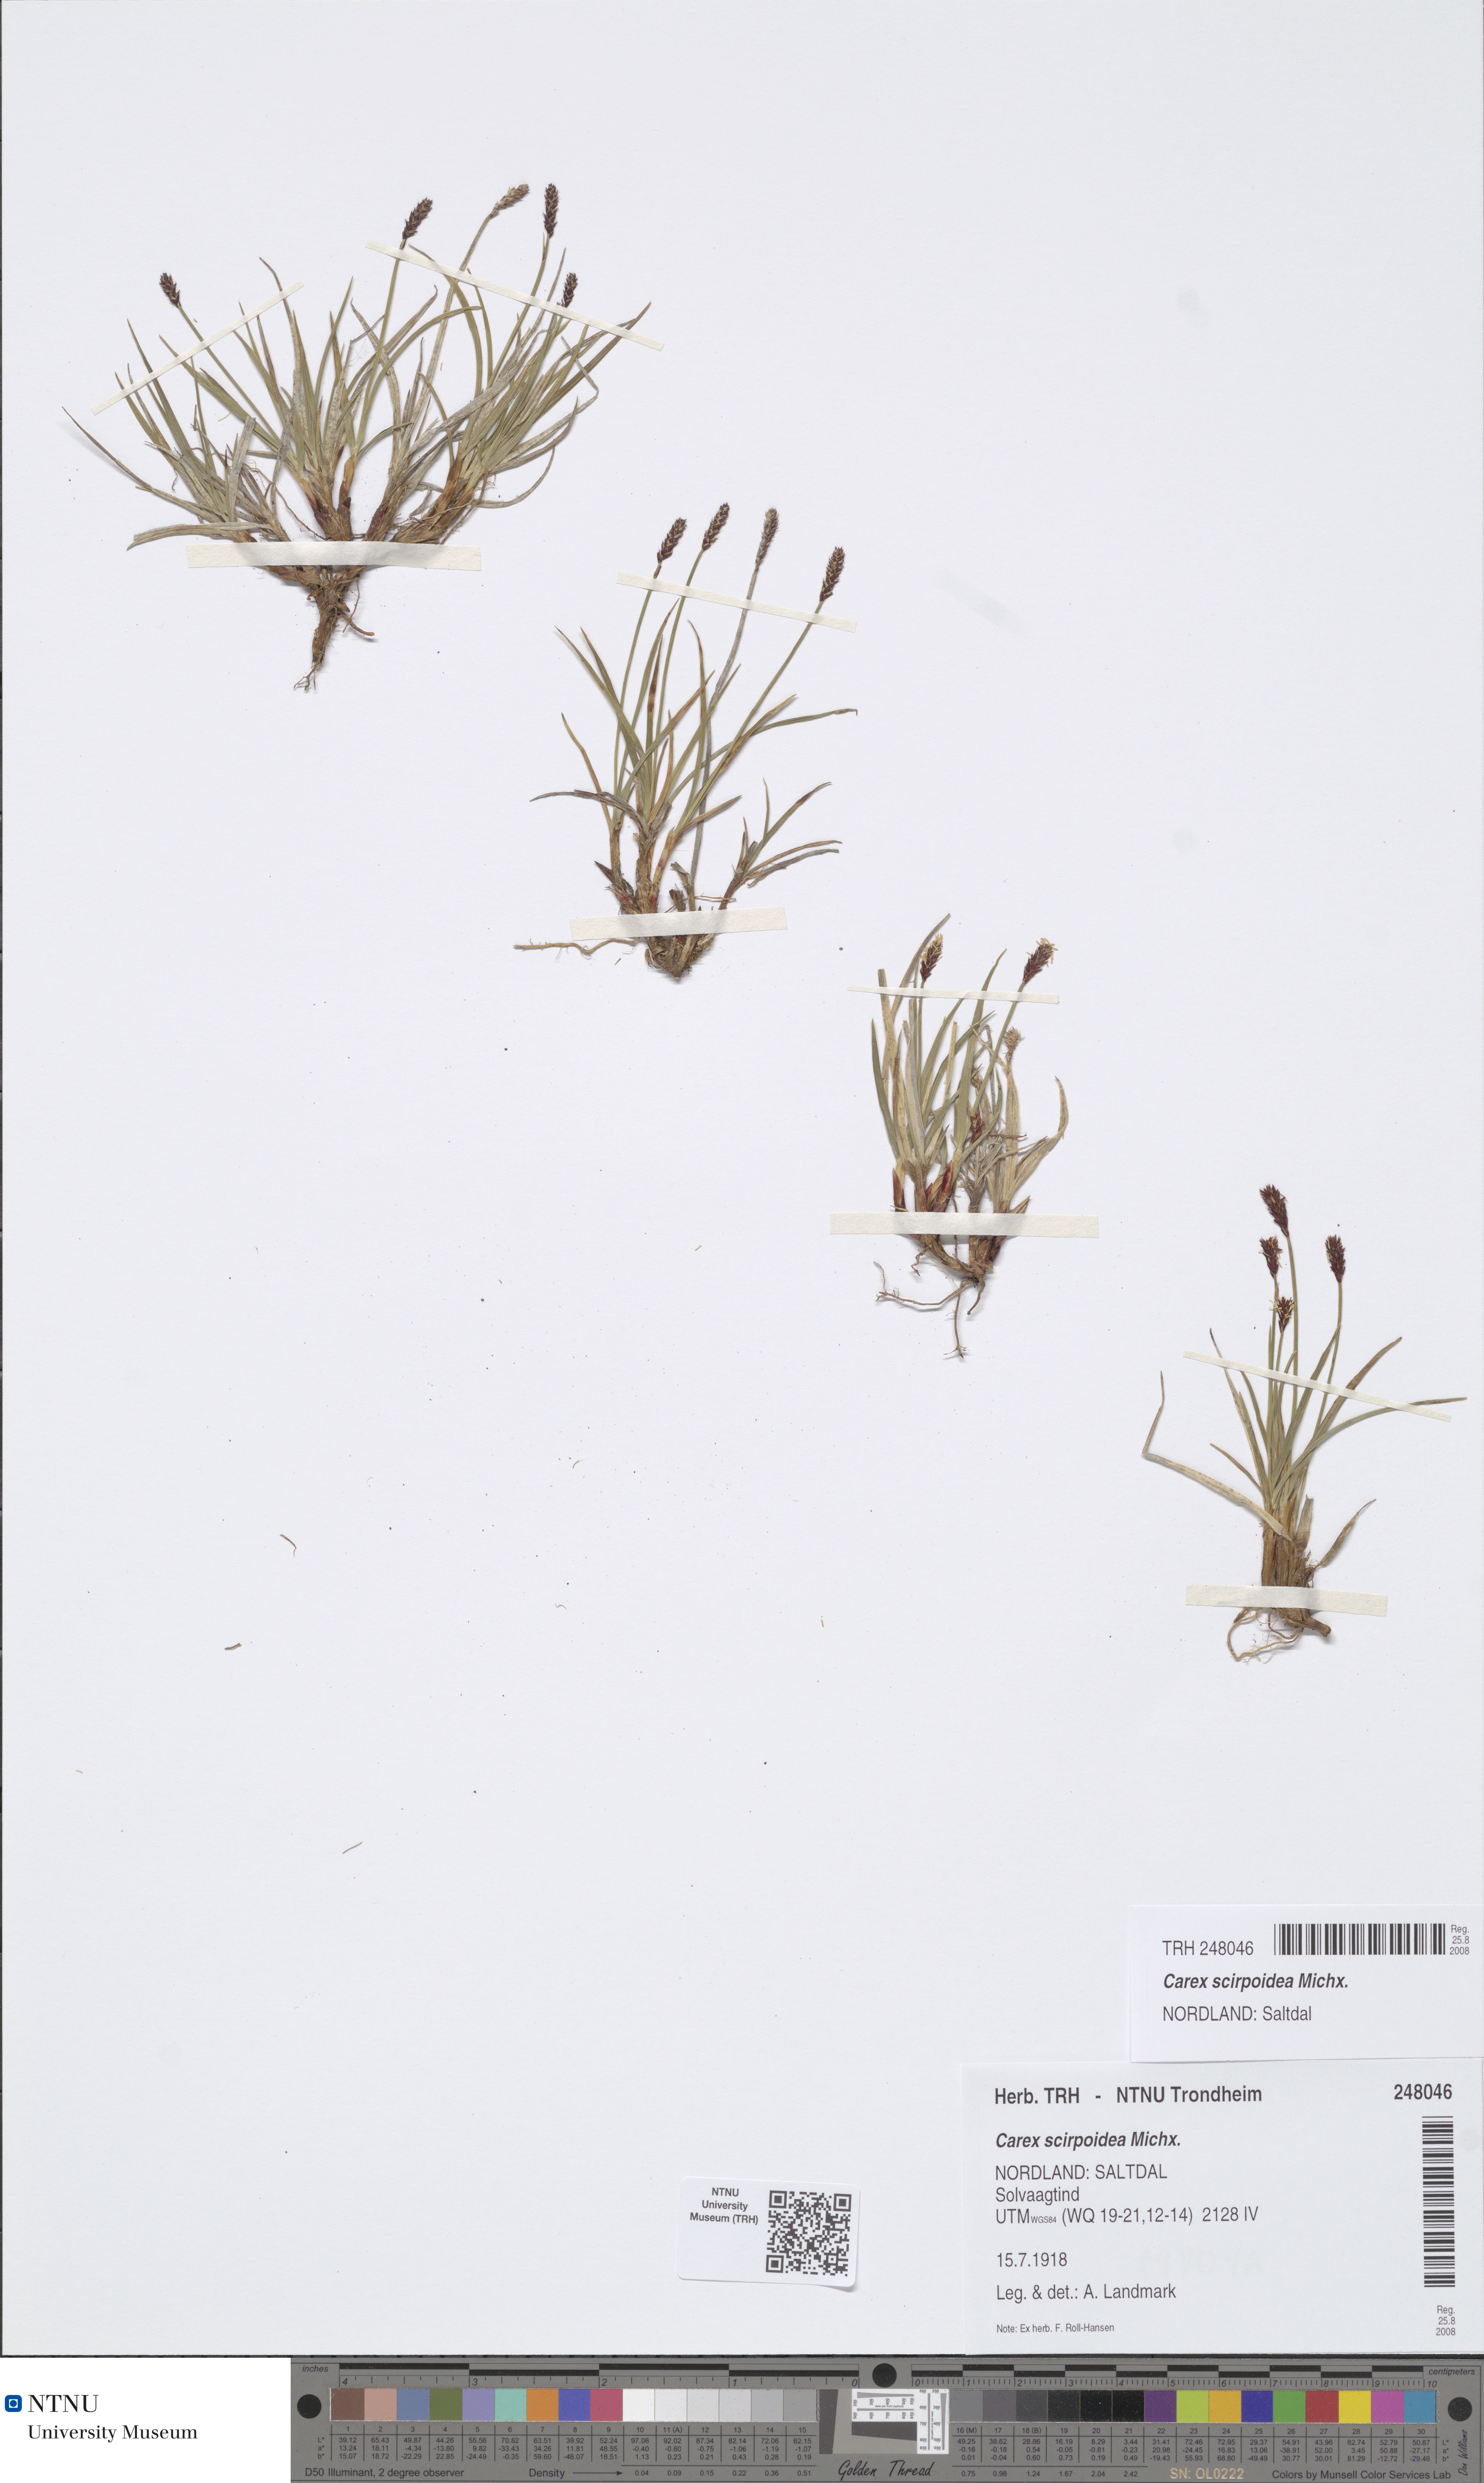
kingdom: Plantae
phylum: Tracheophyta
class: Liliopsida
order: Poales
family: Cyperaceae
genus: Carex
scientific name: Carex scirpoidea
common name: Canada single-spike sedge
